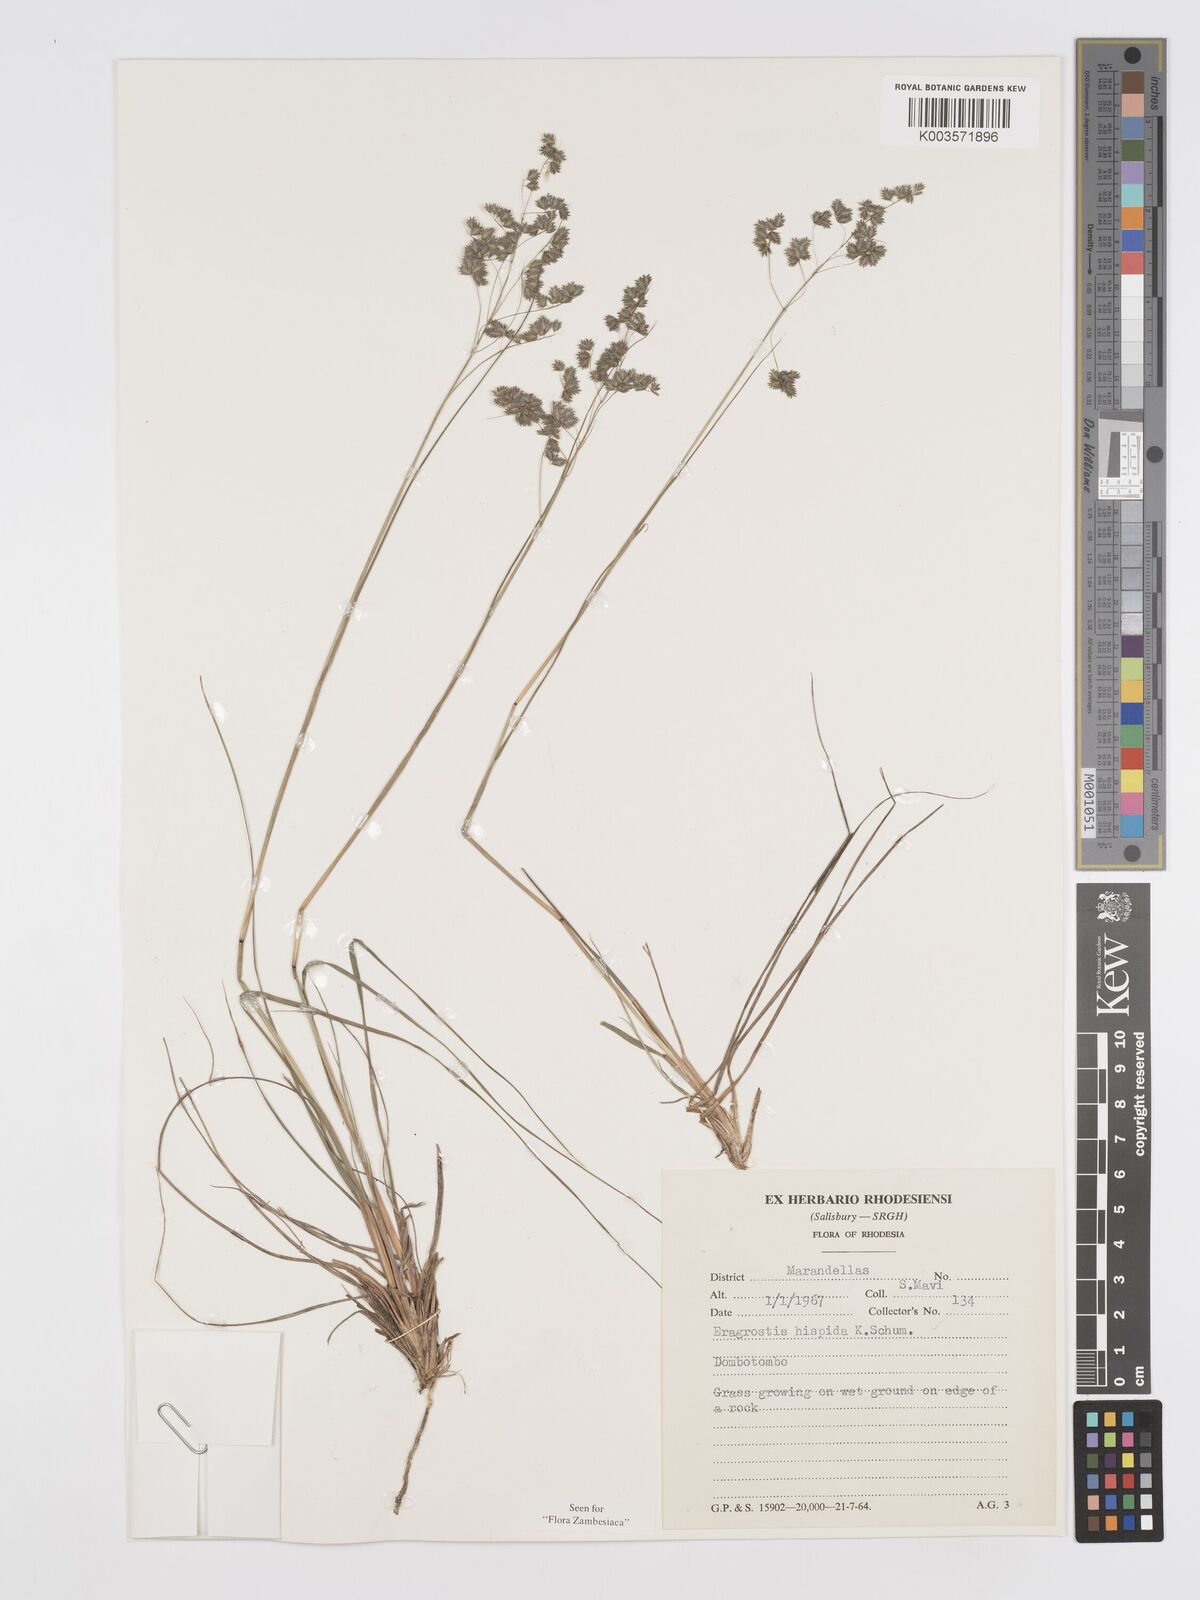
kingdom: Plantae
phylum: Tracheophyta
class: Liliopsida
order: Poales
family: Poaceae
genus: Eragrostis
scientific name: Eragrostis hispida
